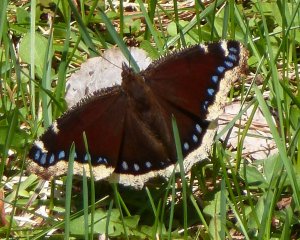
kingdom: Animalia
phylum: Arthropoda
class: Insecta
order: Lepidoptera
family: Nymphalidae
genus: Nymphalis
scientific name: Nymphalis antiopa
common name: Mourning Cloak
